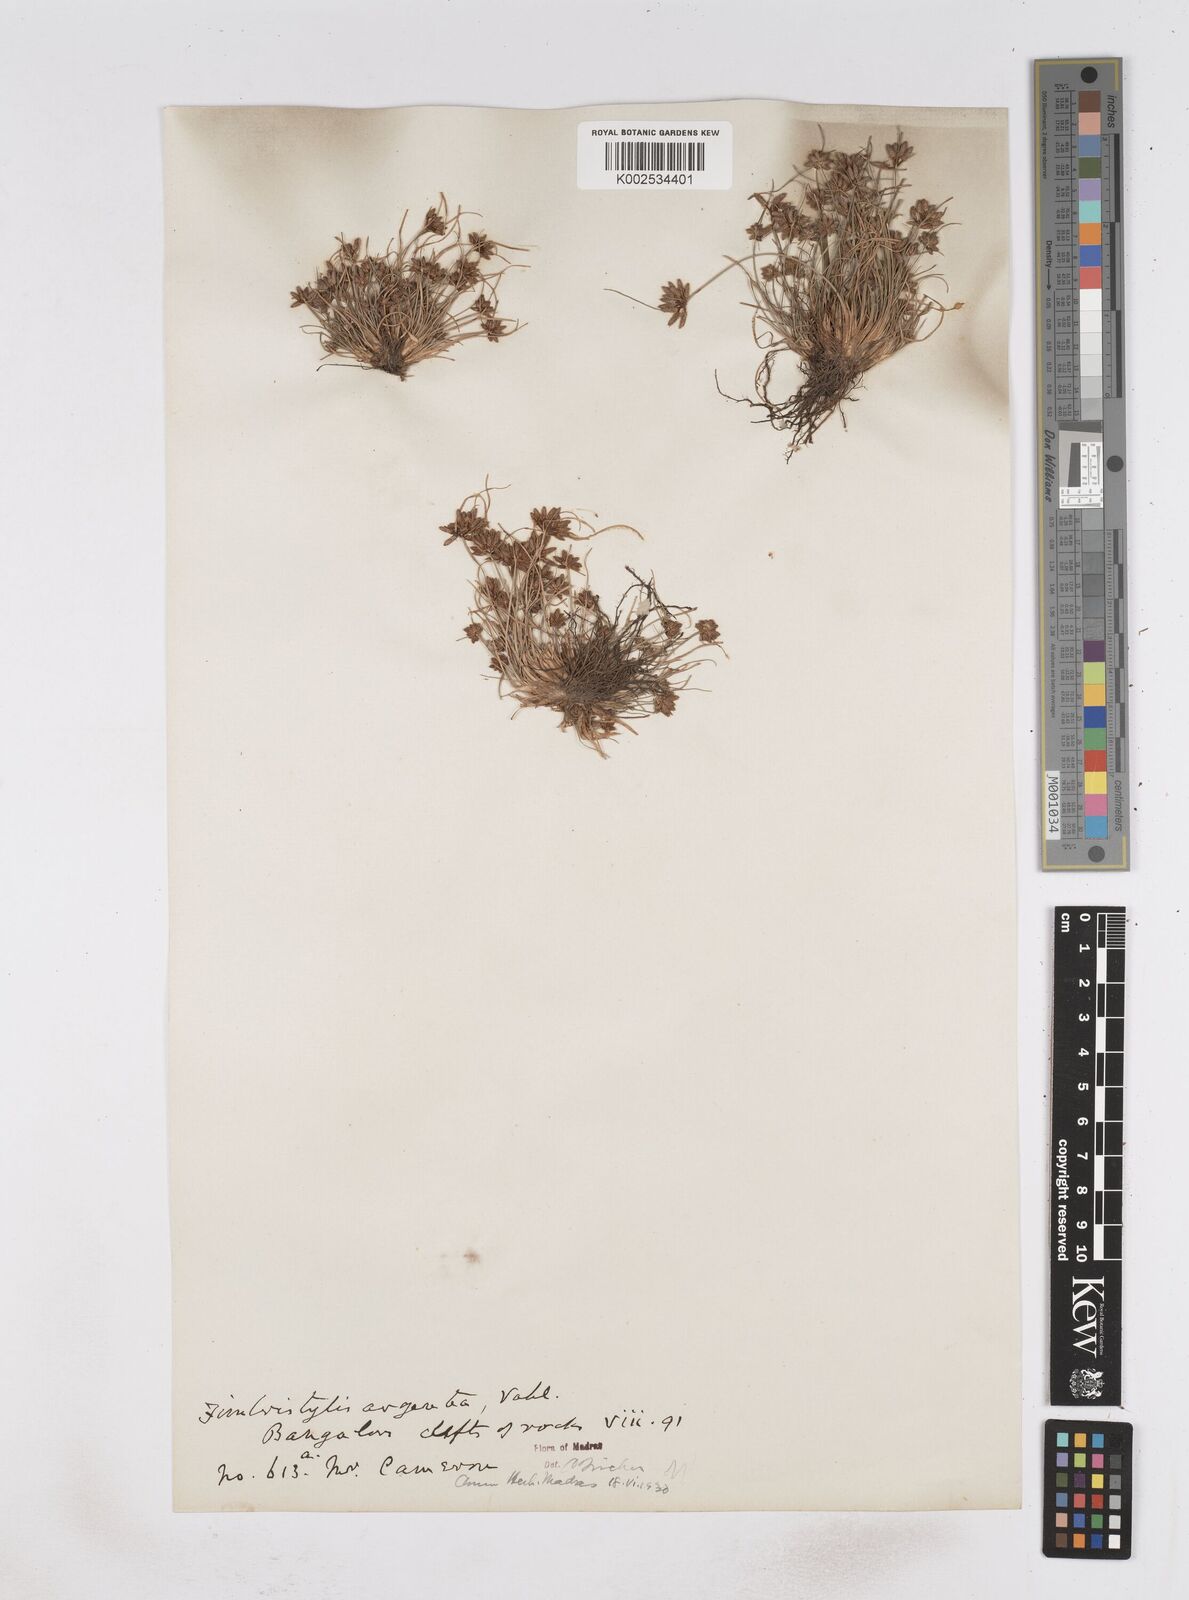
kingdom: Plantae
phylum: Tracheophyta
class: Liliopsida
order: Poales
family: Cyperaceae
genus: Fimbristylis
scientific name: Fimbristylis argentea
